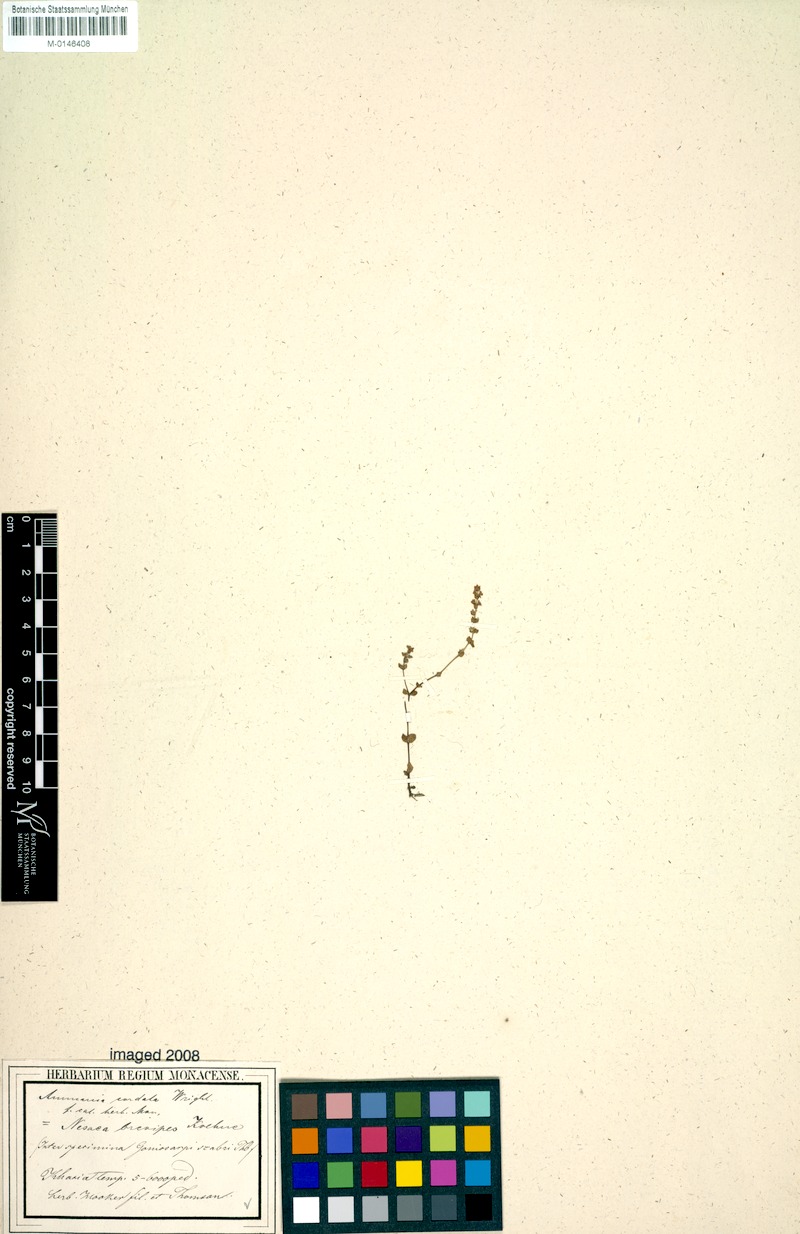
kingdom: Plantae
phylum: Tracheophyta
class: Magnoliopsida
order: Myrtales
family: Lythraceae
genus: Ammannia
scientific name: Ammannia cordata
